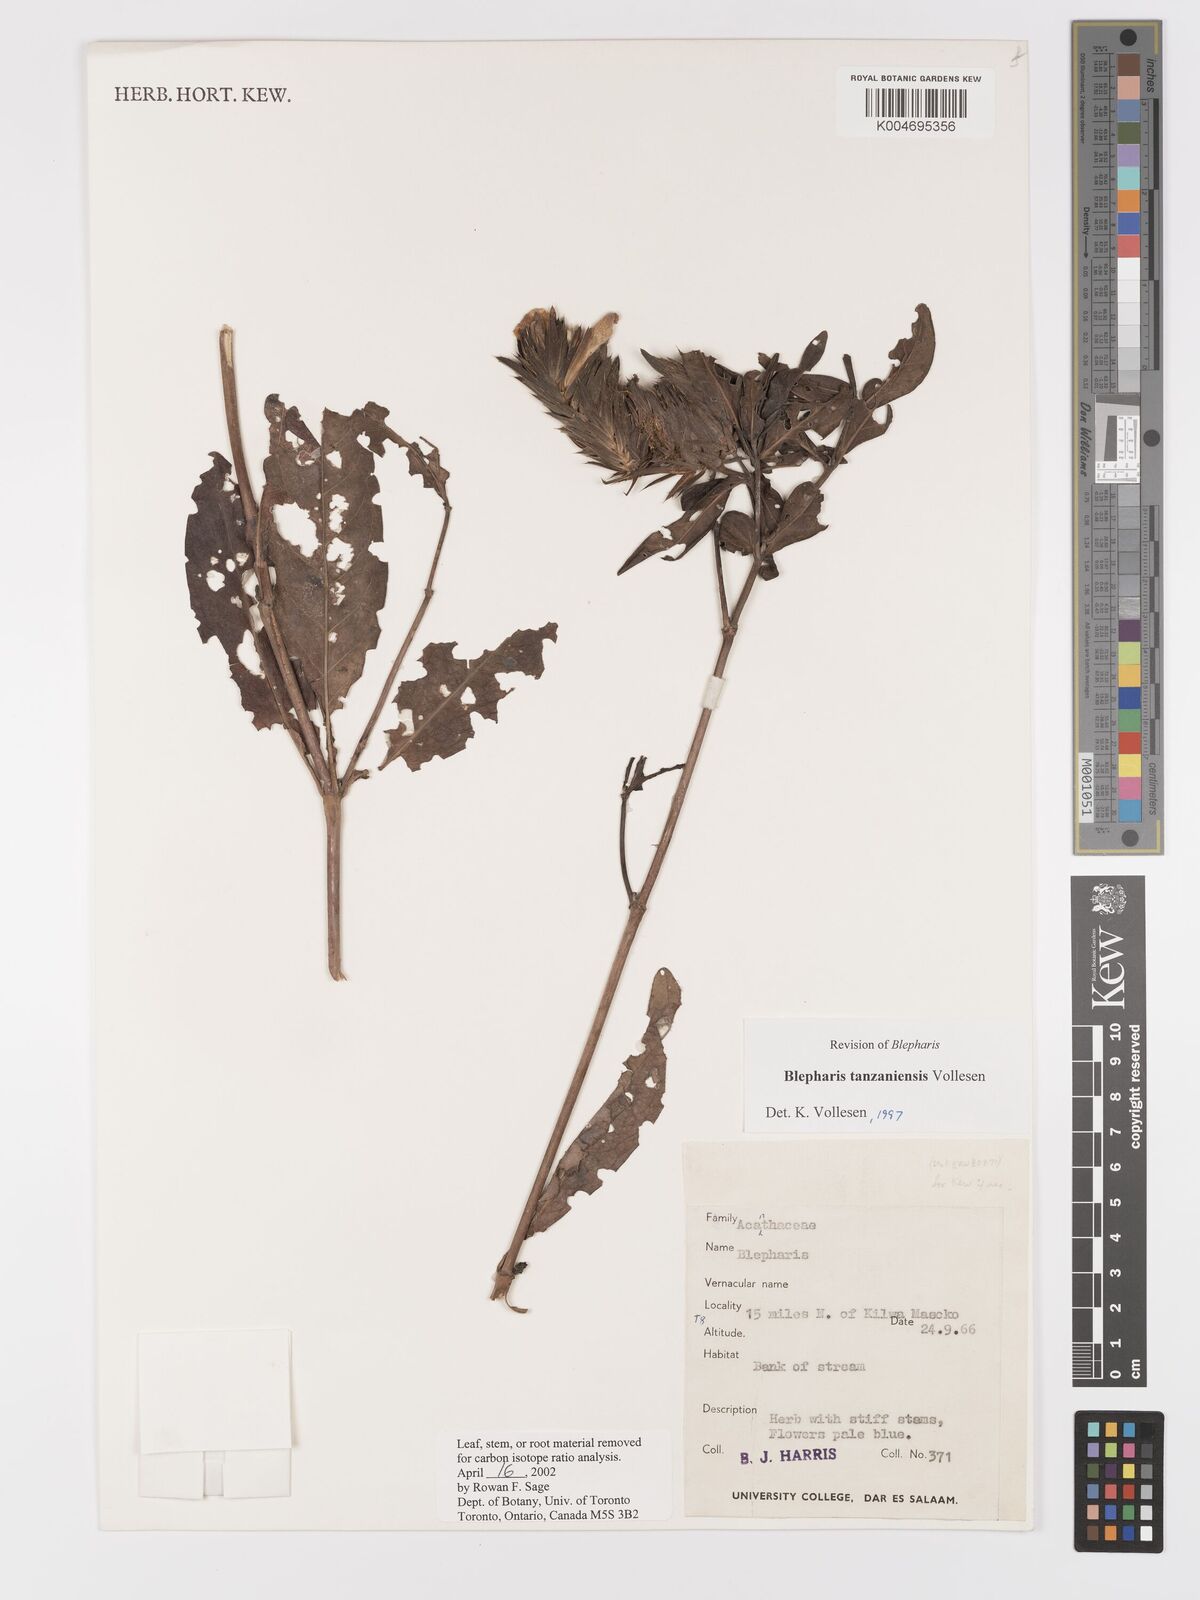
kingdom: Plantae
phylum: Tracheophyta
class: Magnoliopsida
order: Lamiales
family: Acanthaceae
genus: Blepharis
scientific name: Blepharis tanzaniensis
